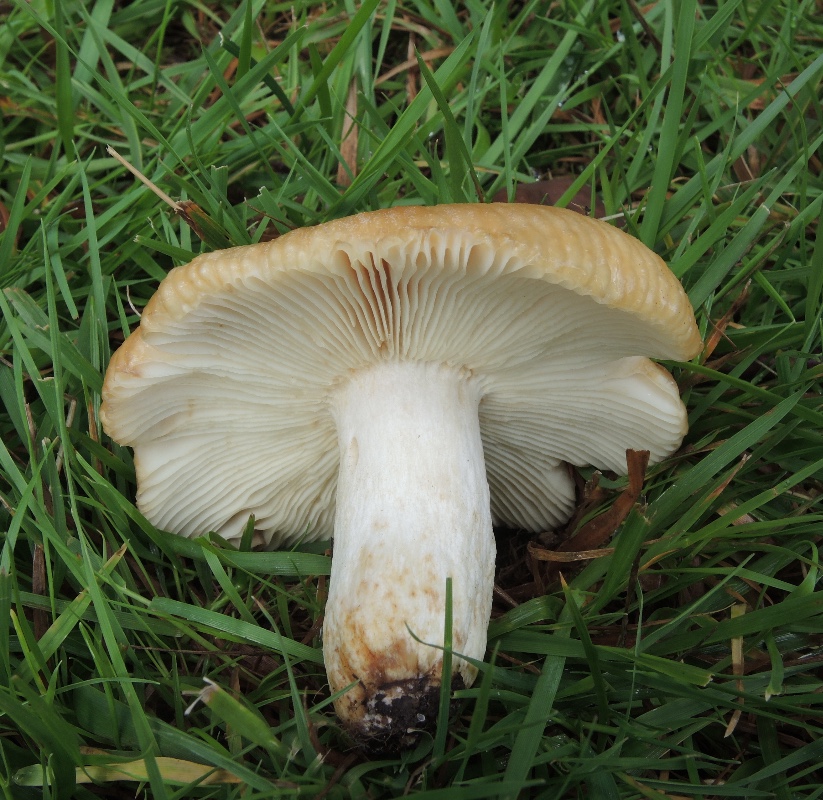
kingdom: Fungi
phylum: Basidiomycota
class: Agaricomycetes
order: Russulales
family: Russulaceae
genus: Russula
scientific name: Russula subfoetens
